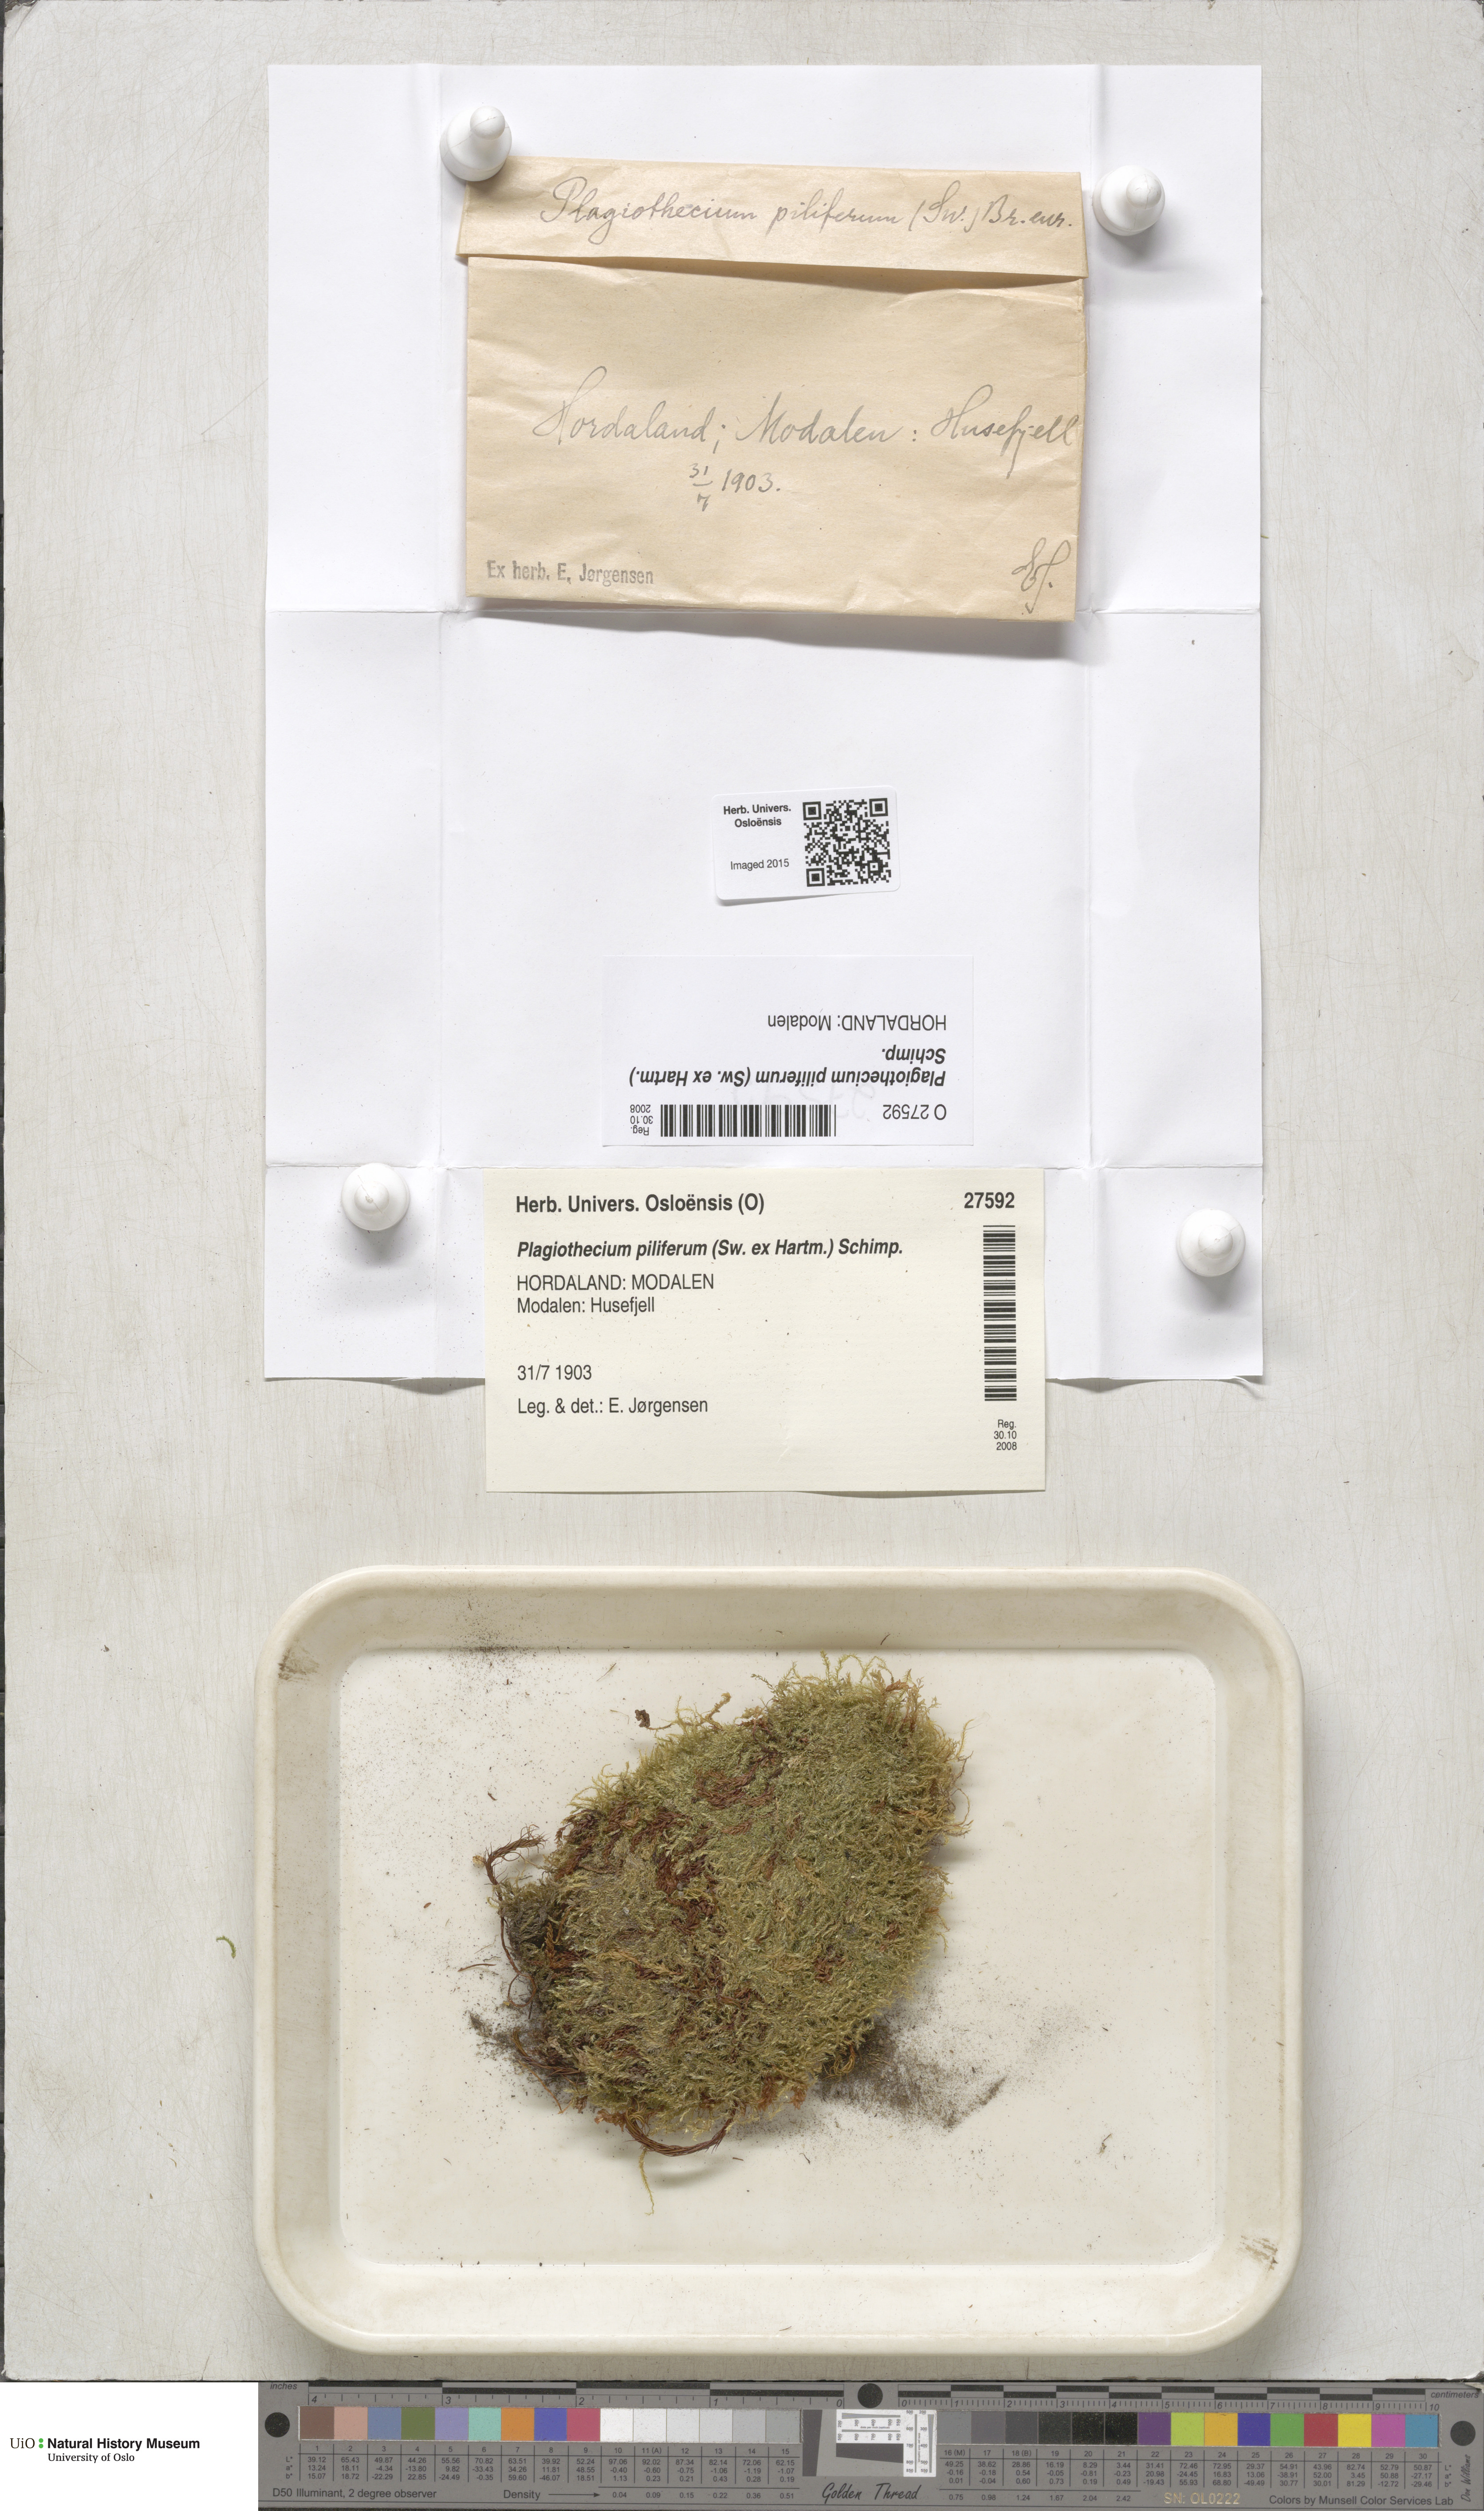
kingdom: Plantae
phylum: Bryophyta
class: Bryopsida
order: Hypnales
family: Plagiotheciaceae
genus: Rectithecium
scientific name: Rectithecium piliferum
